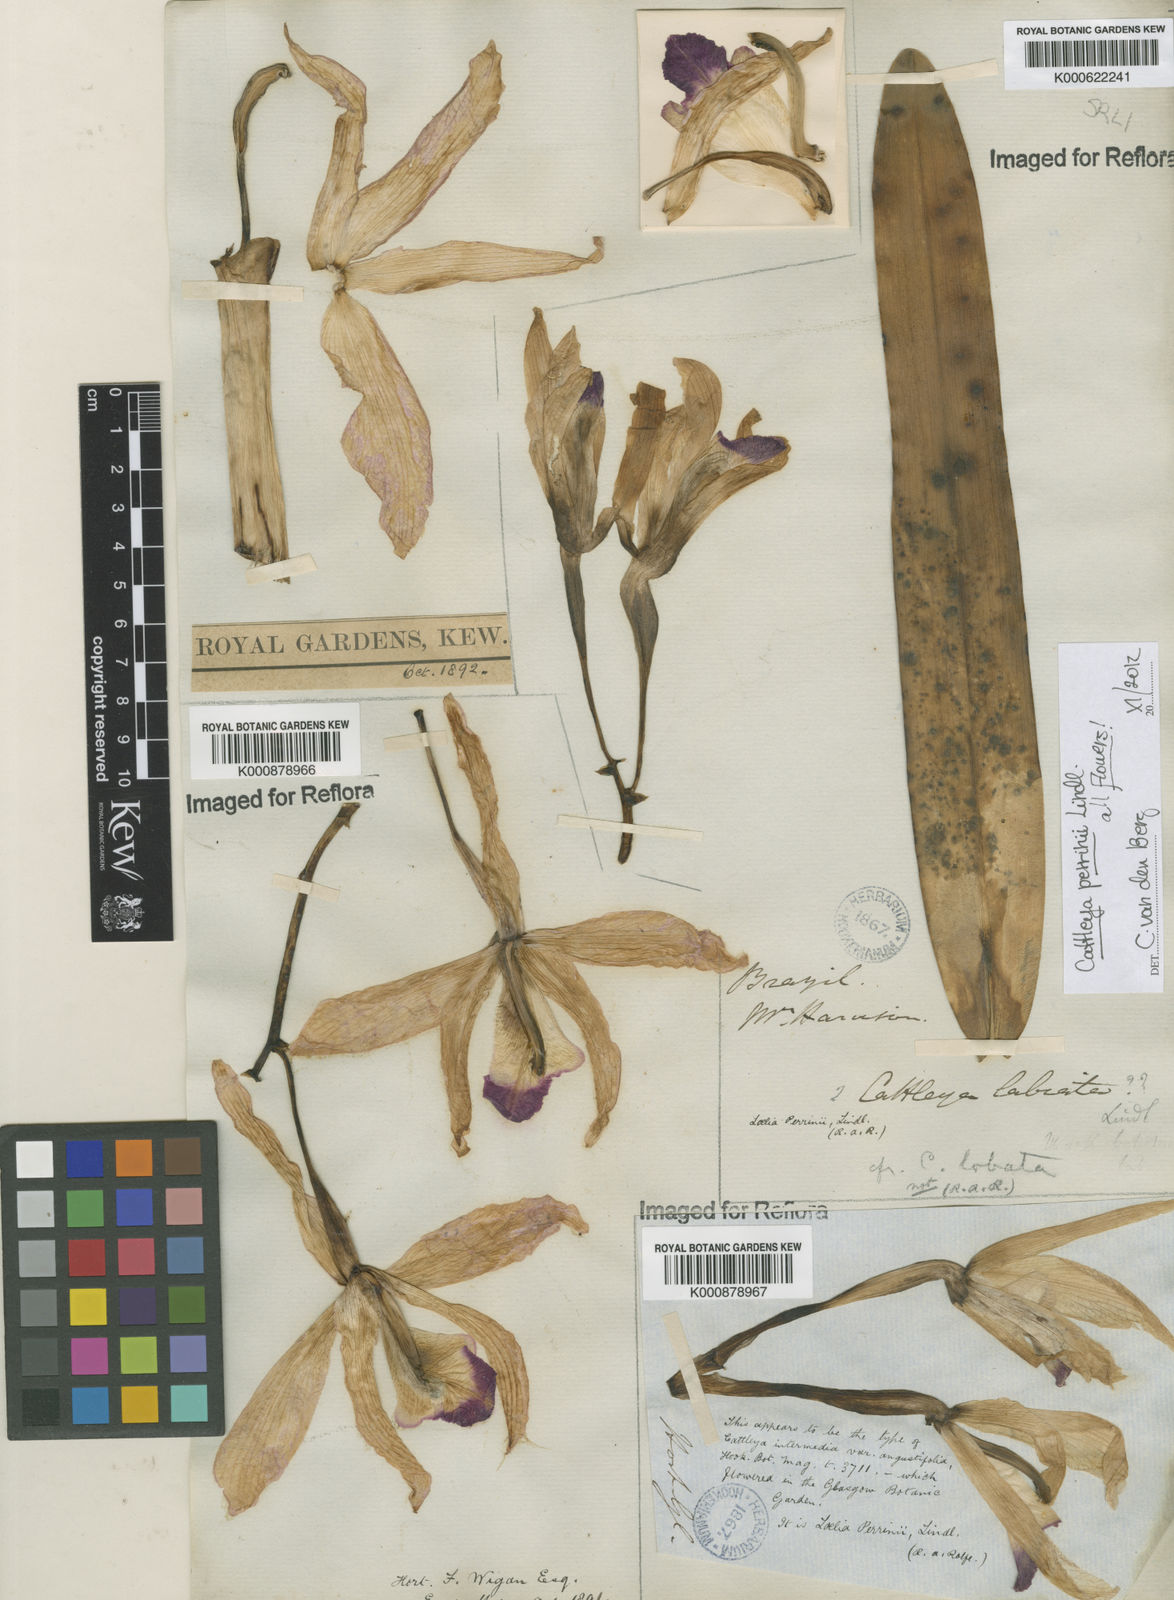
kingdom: Plantae
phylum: Tracheophyta
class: Liliopsida
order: Asparagales
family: Orchidaceae
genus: Cattleya
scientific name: Cattleya perrinii
